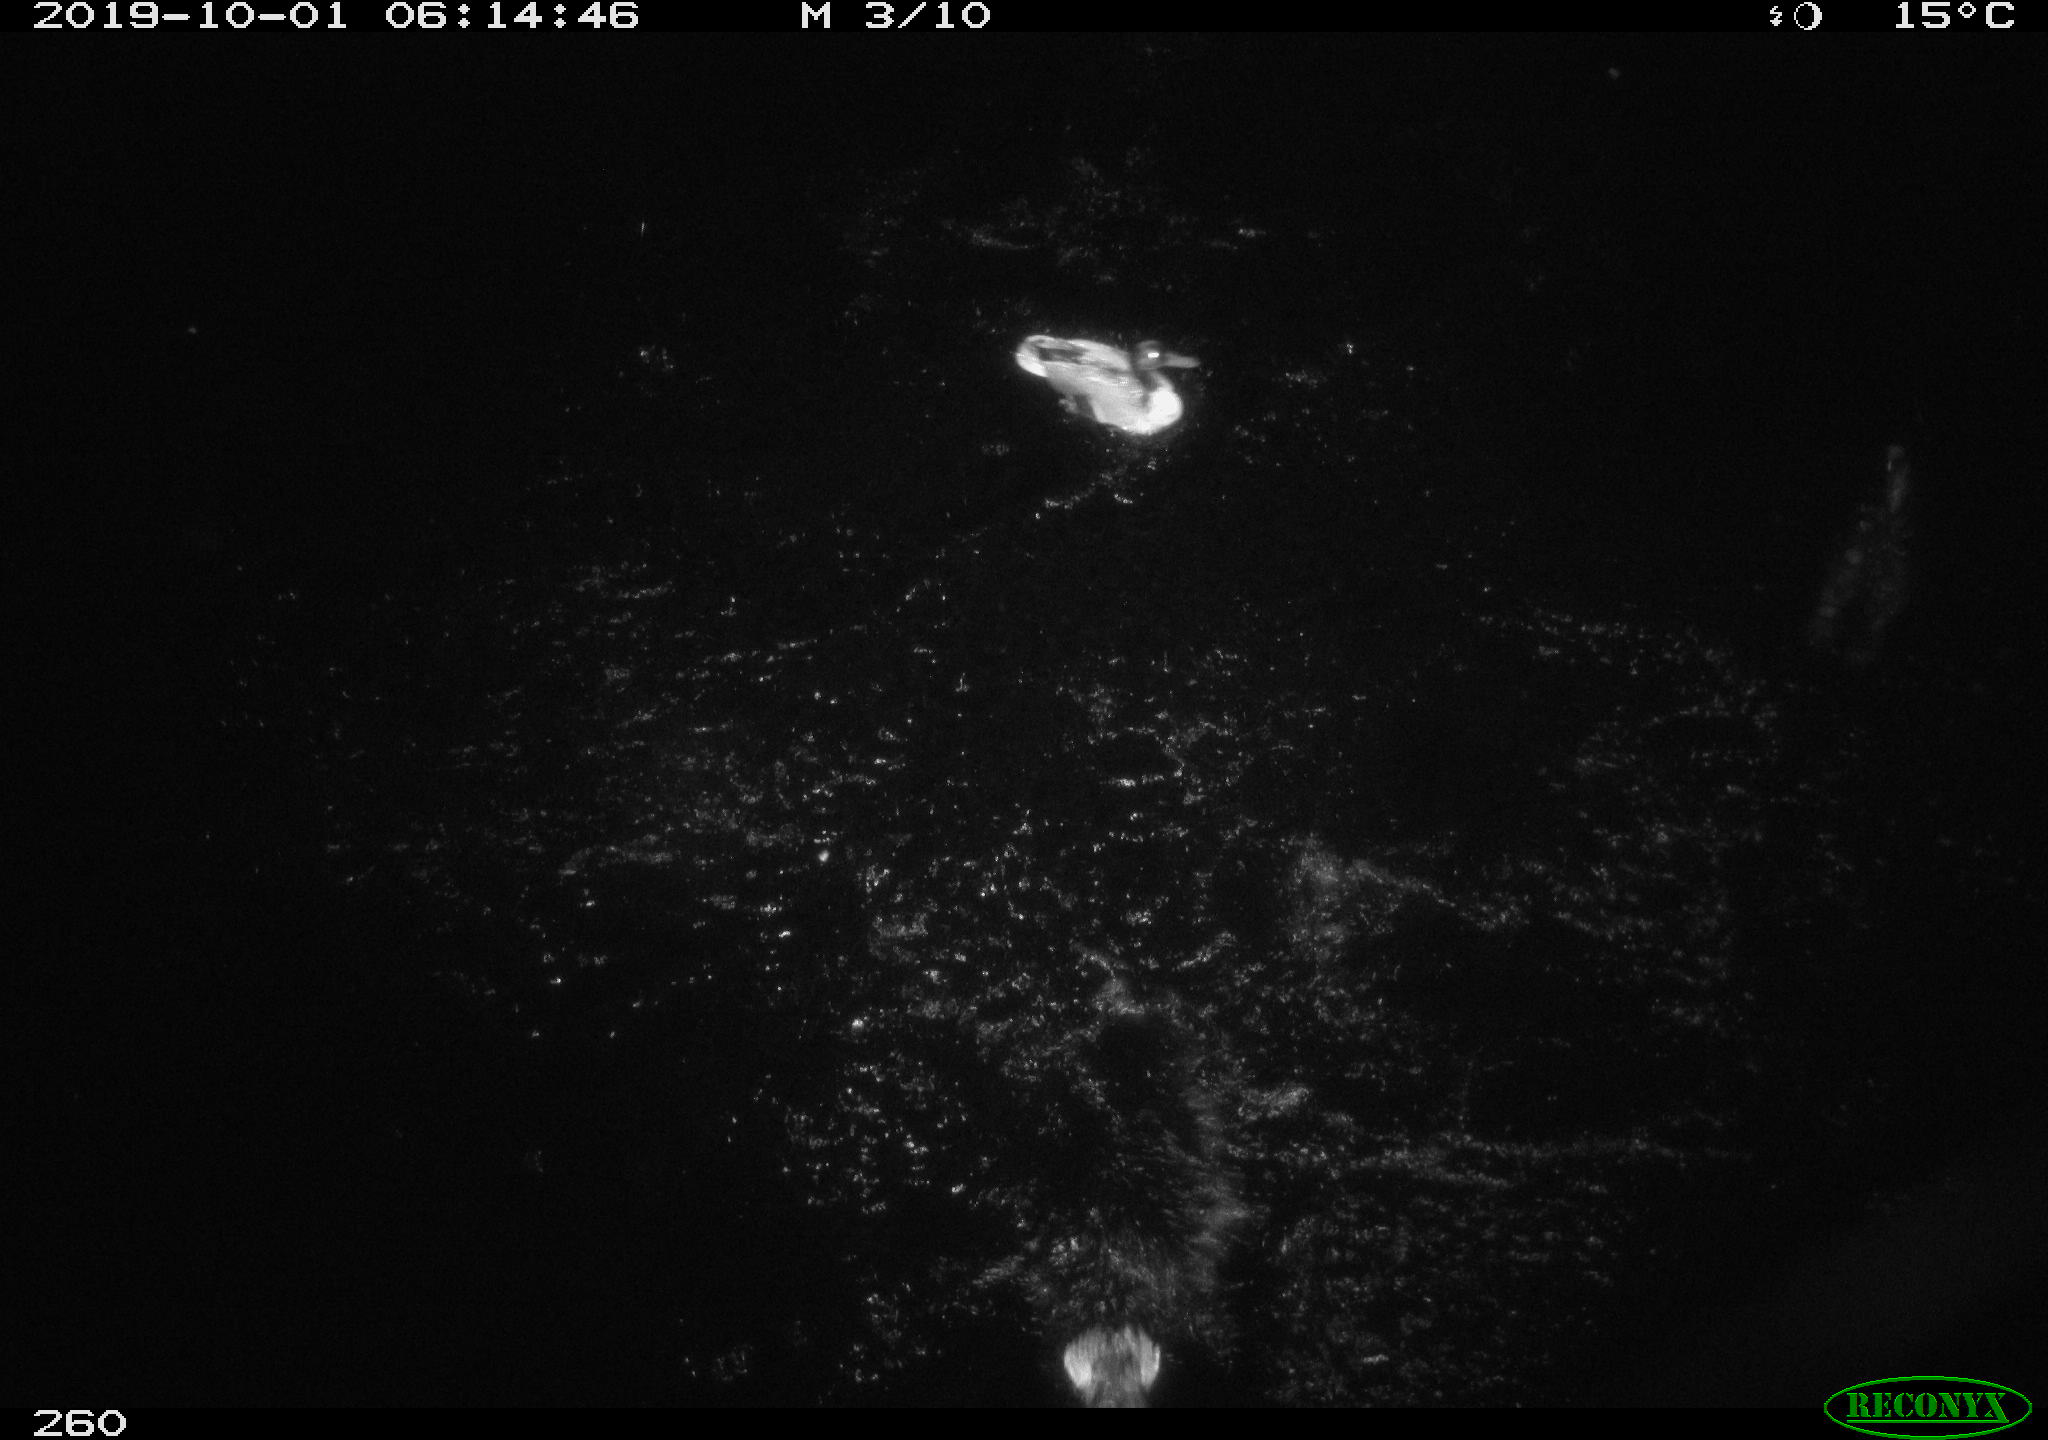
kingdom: Animalia
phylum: Chordata
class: Aves
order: Anseriformes
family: Anatidae
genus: Anas
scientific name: Anas platyrhynchos
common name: Mallard
